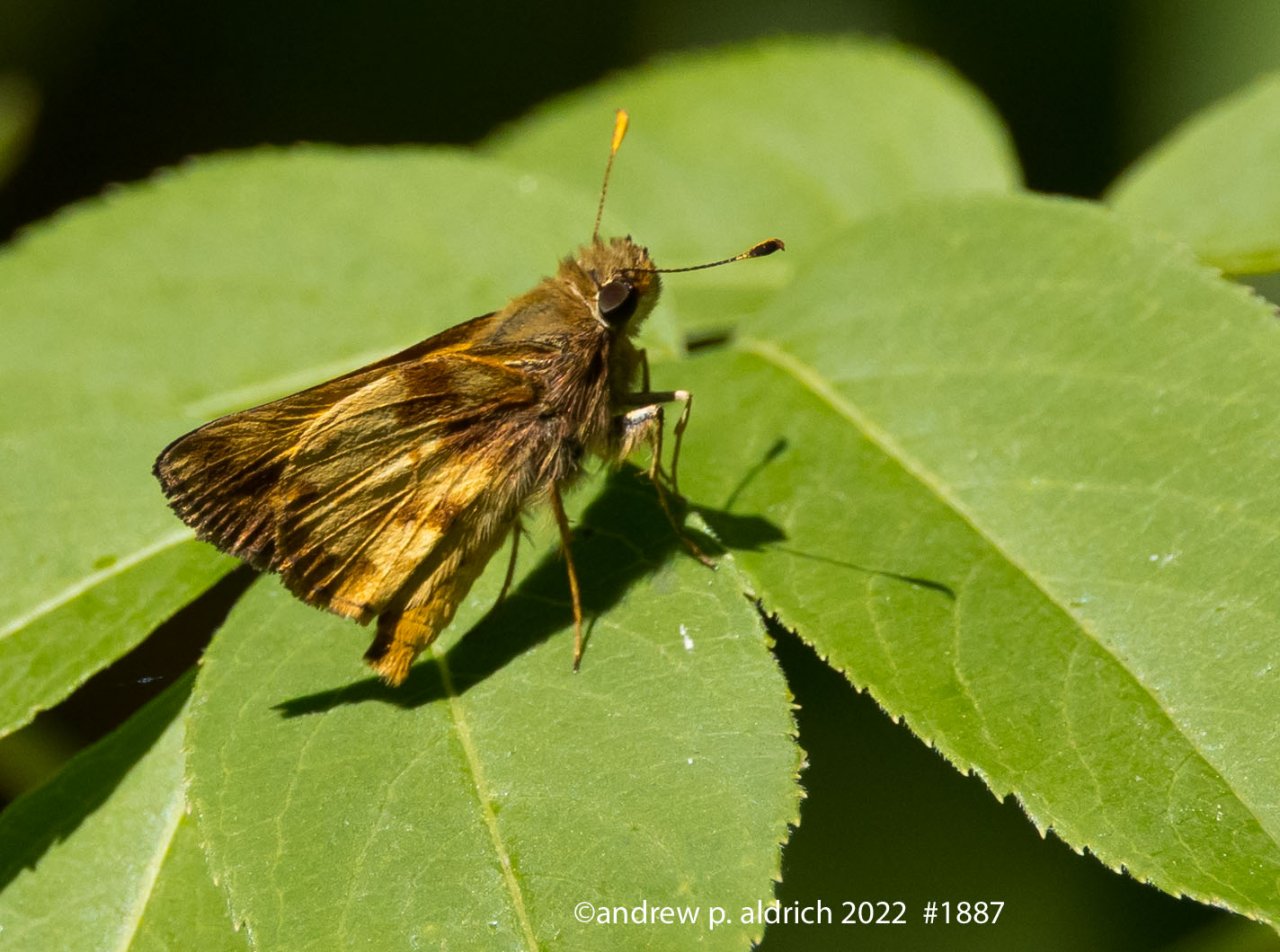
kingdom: Animalia
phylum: Arthropoda
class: Insecta
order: Lepidoptera
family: Hesperiidae
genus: Lon
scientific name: Lon zabulon
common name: Zabulon Skipper
